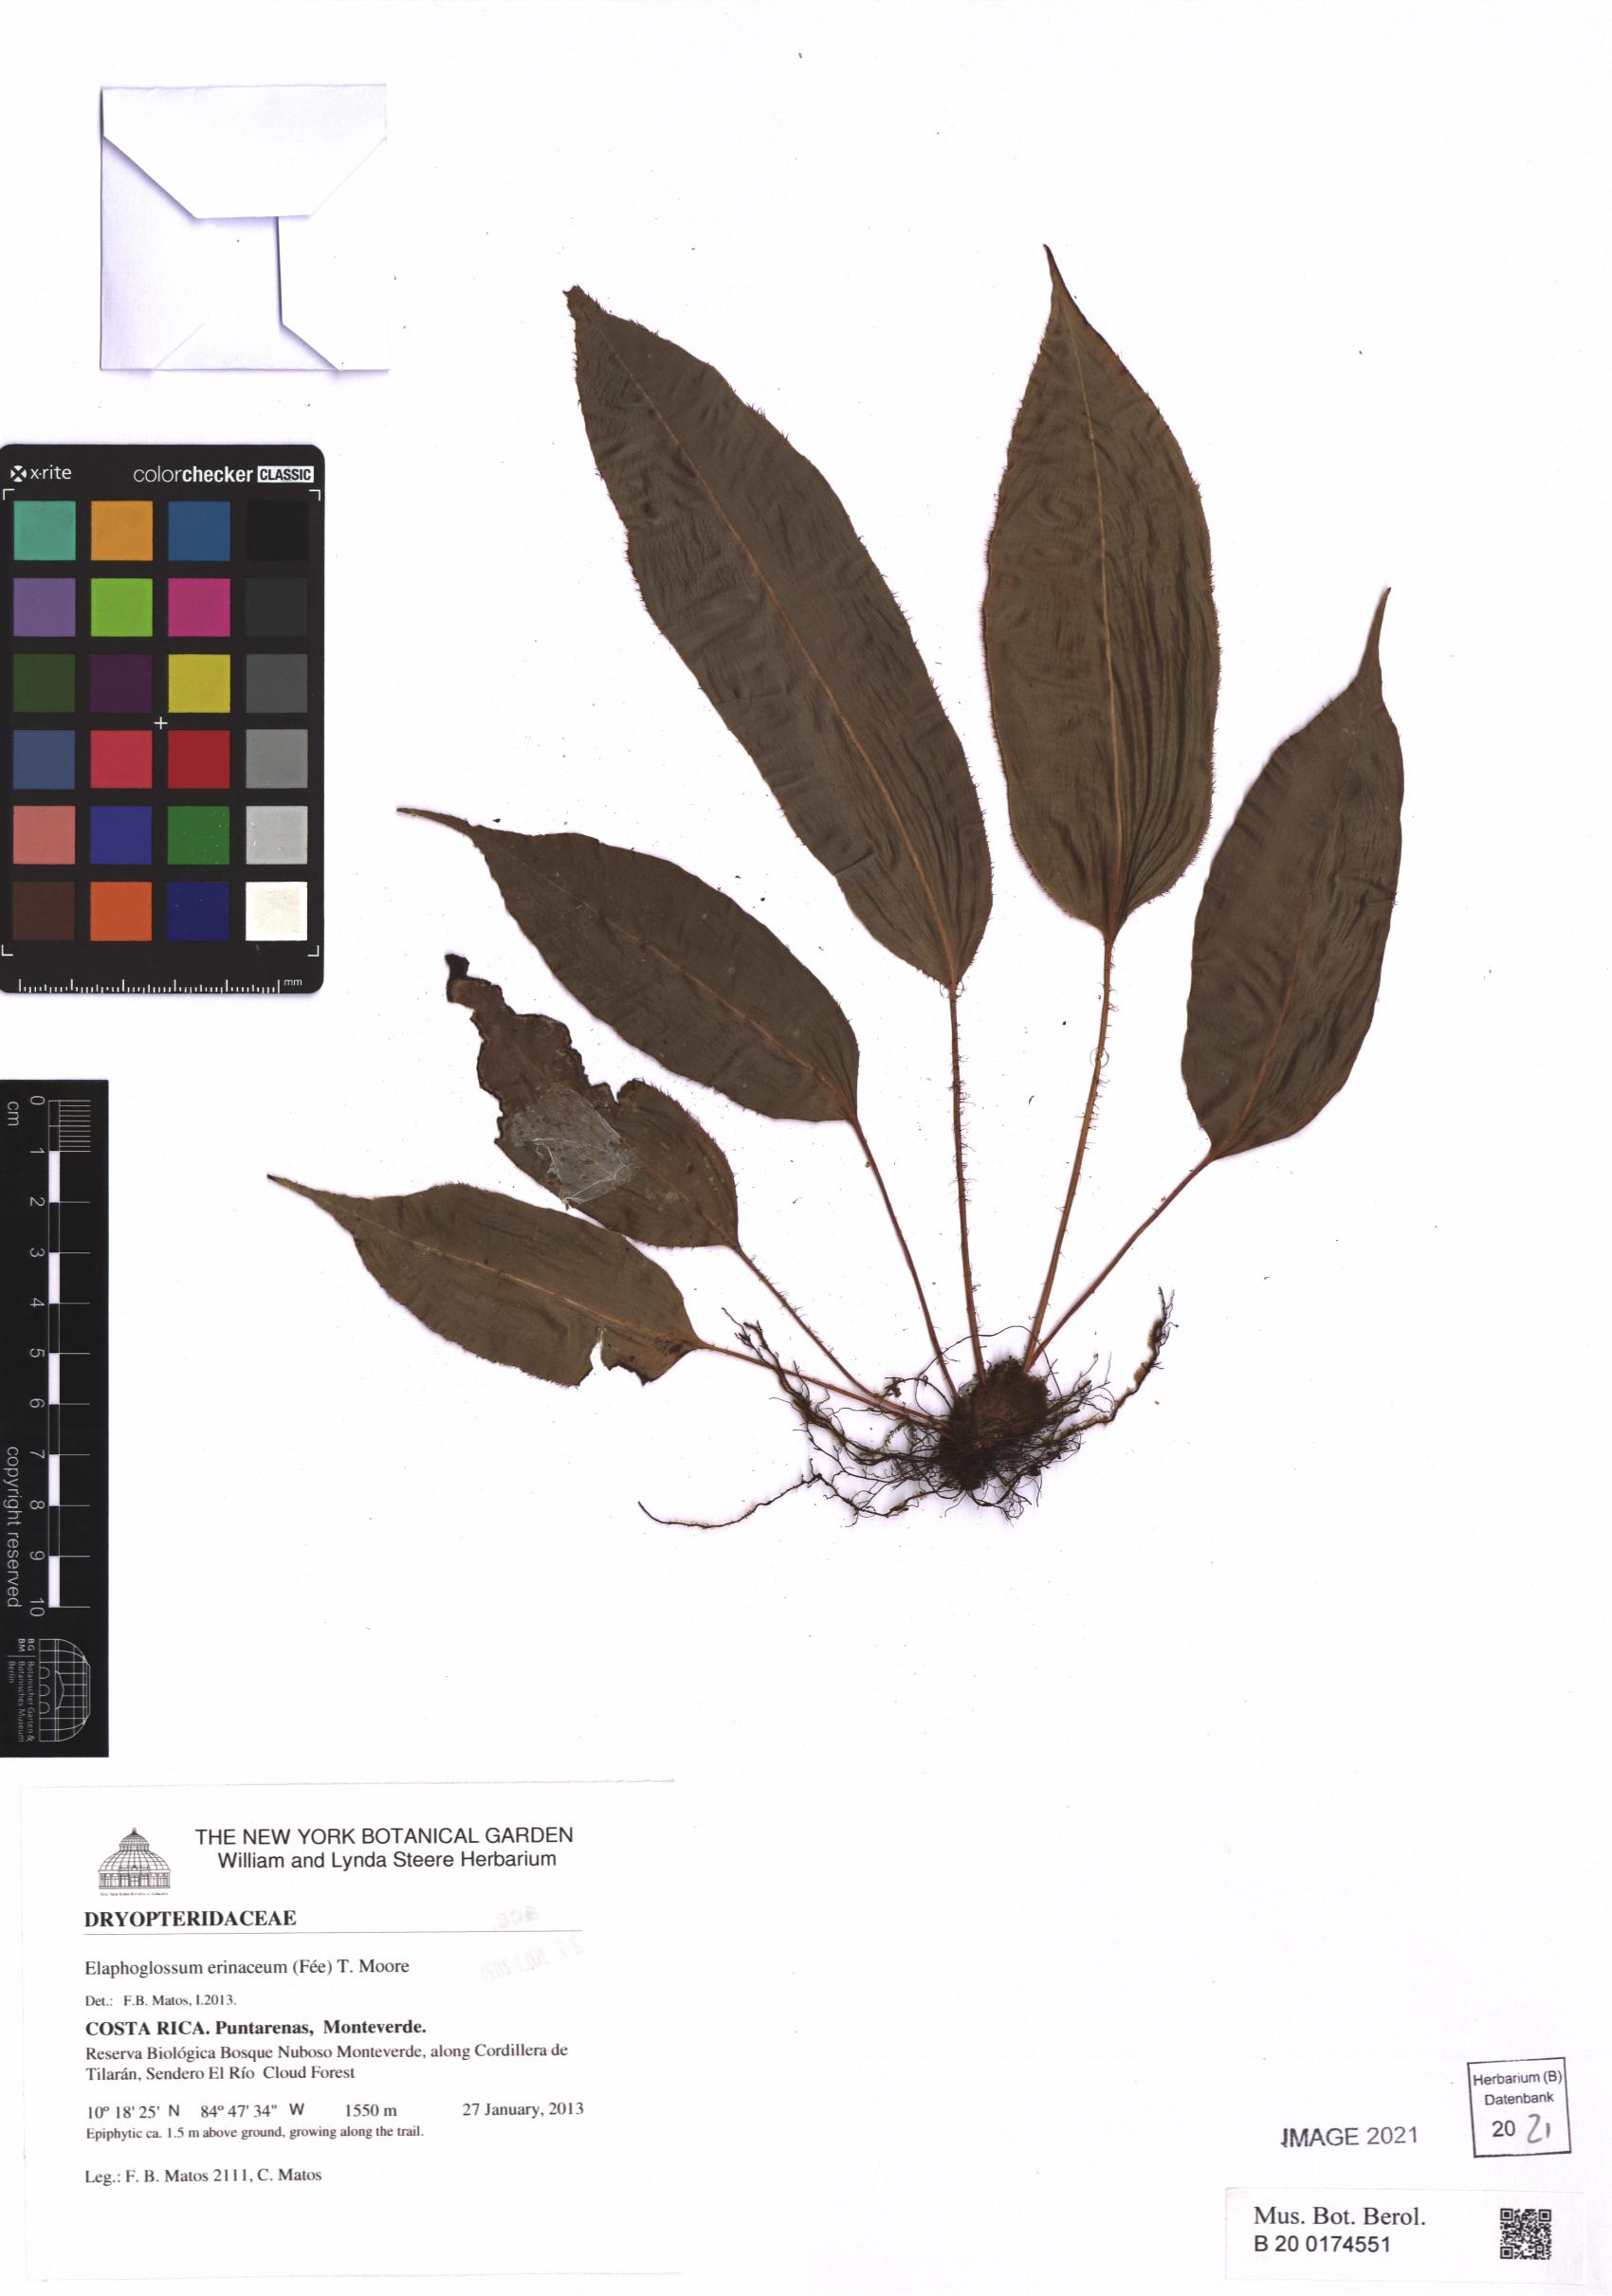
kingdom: Plantae
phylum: Tracheophyta
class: Polypodiopsida
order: Polypodiales
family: Dryopteridaceae
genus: Elaphoglossum
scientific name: Elaphoglossum erinaceum
